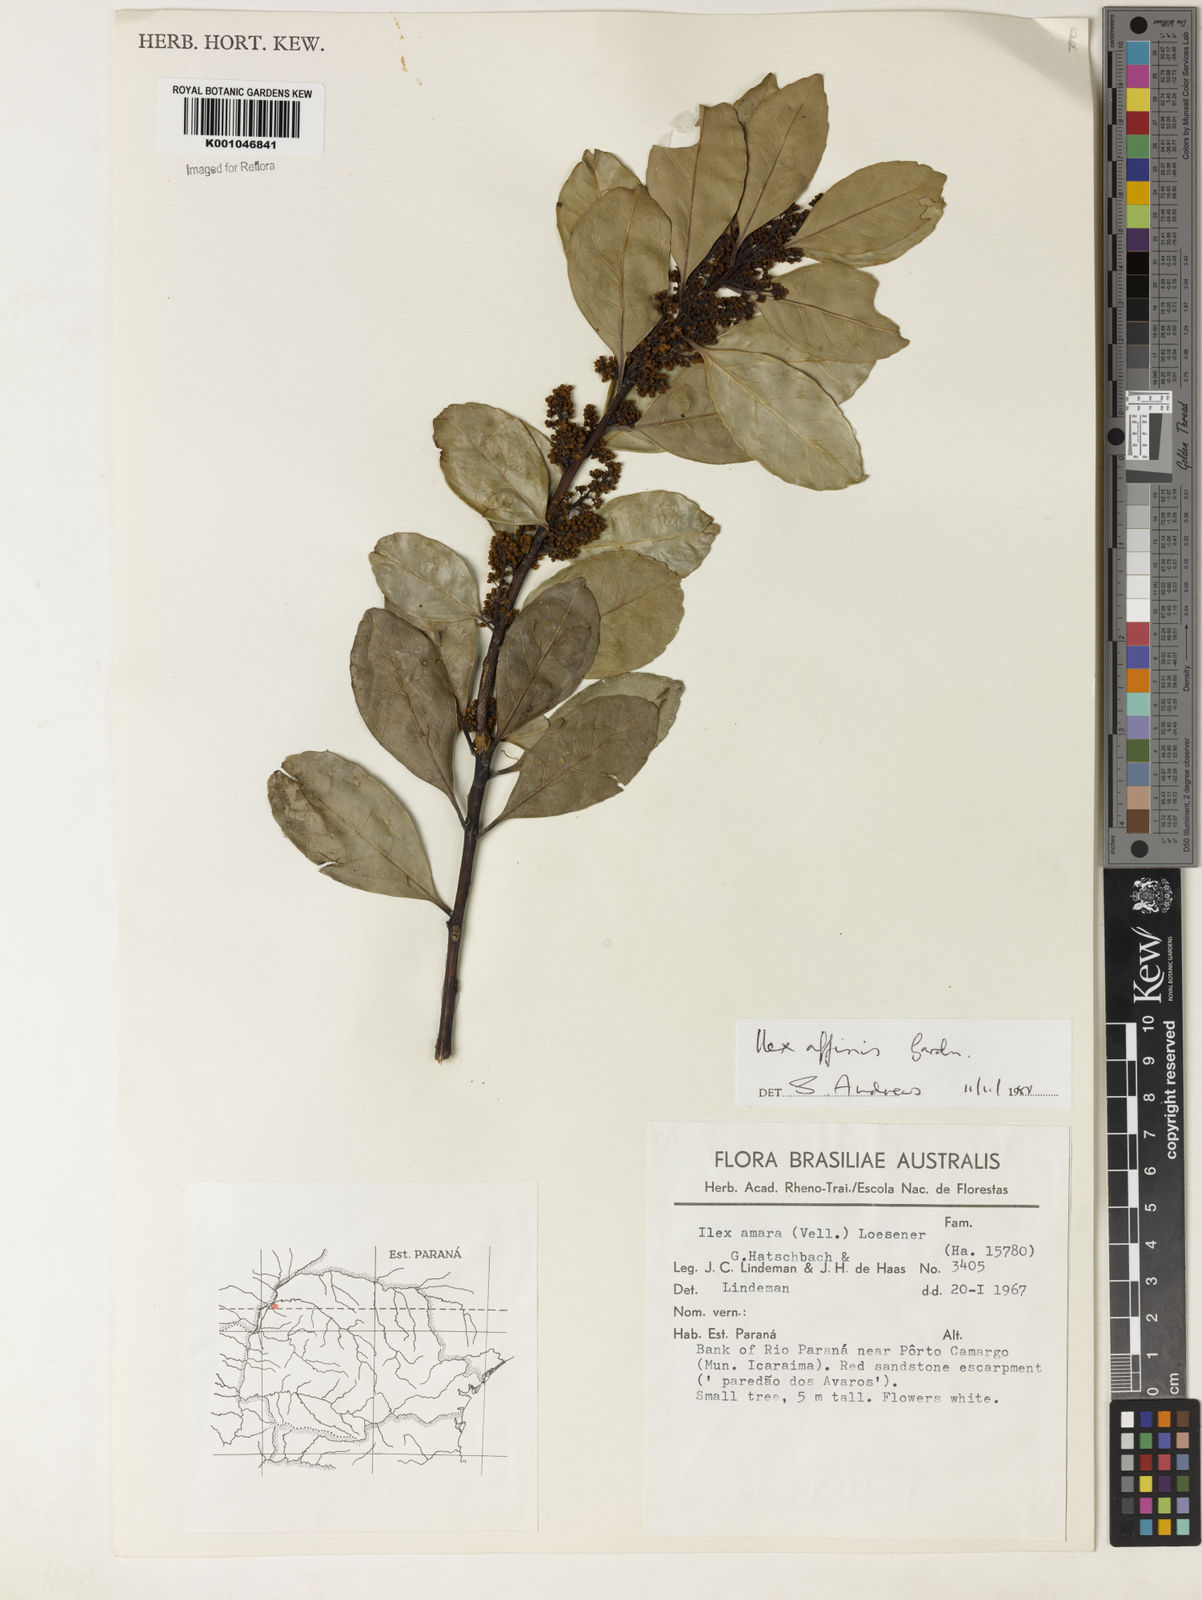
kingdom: Plantae
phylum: Tracheophyta
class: Magnoliopsida
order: Aquifoliales
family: Aquifoliaceae
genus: Ilex
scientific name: Ilex affinis
